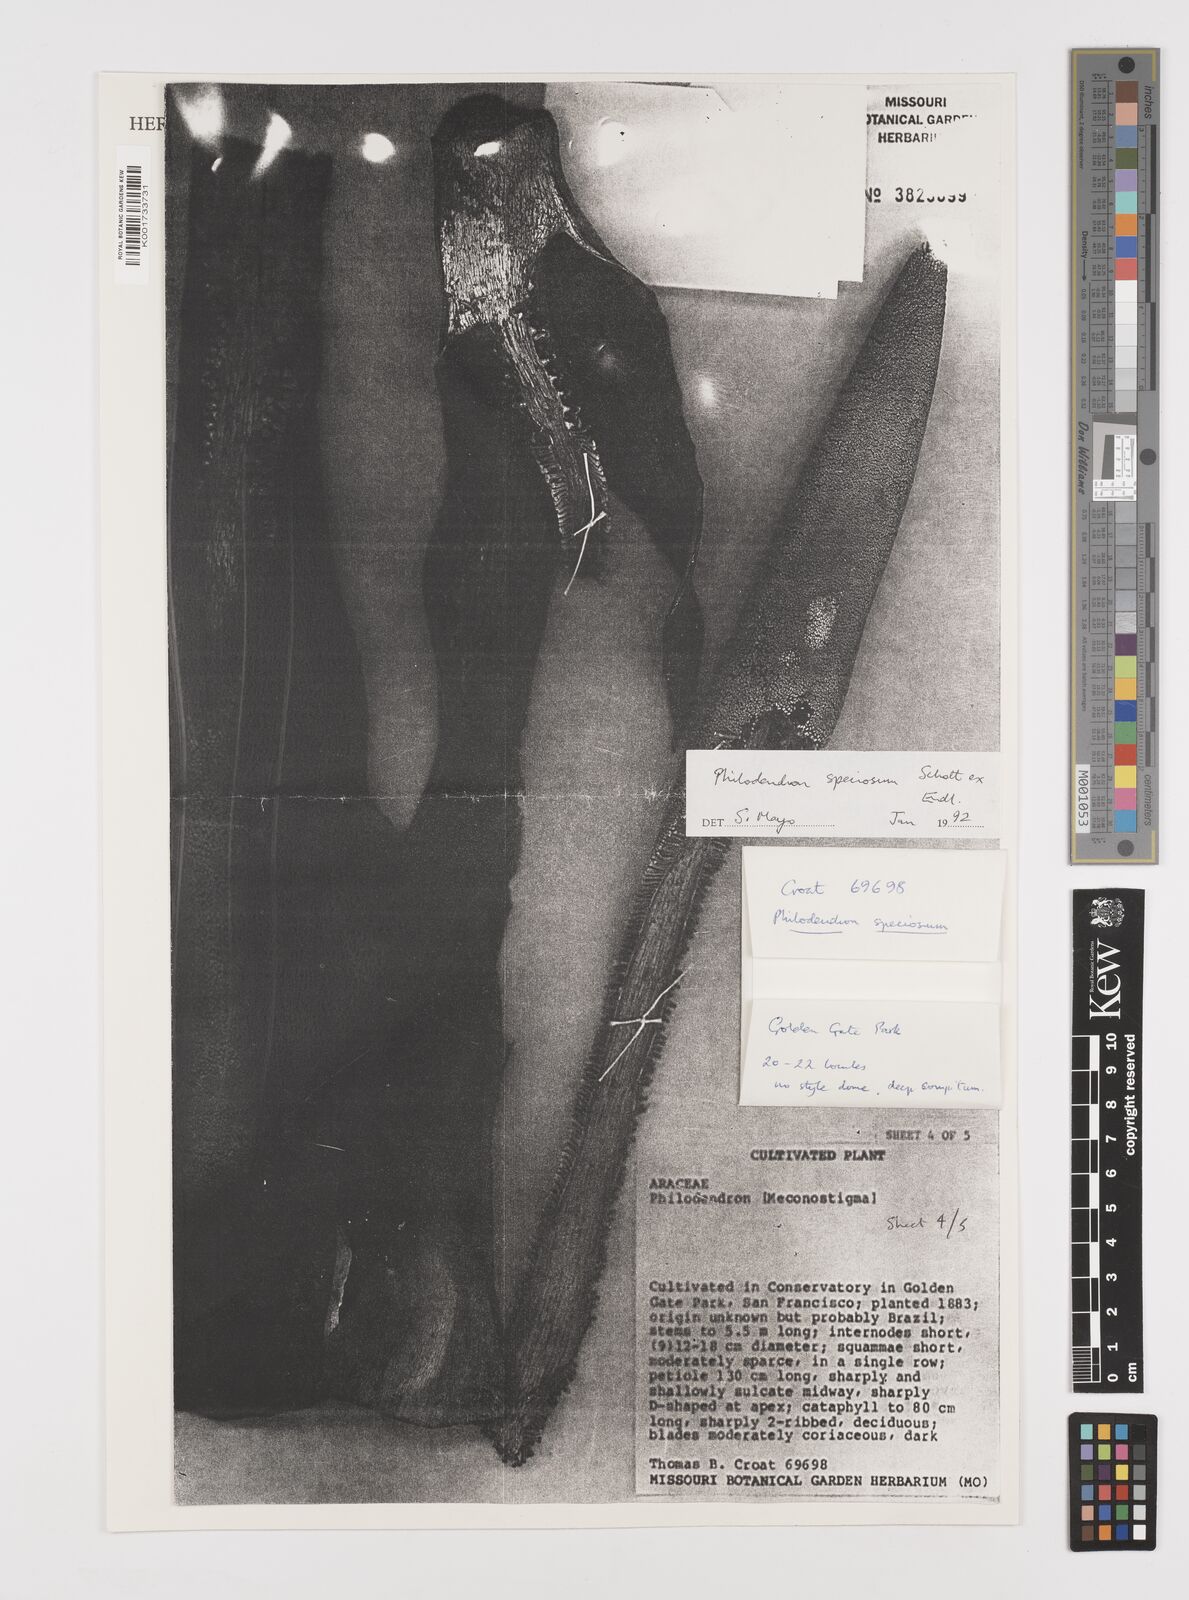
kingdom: Plantae
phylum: Tracheophyta
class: Liliopsida
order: Alismatales
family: Araceae
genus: Thaumatophyllum
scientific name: Thaumatophyllum speciosum
